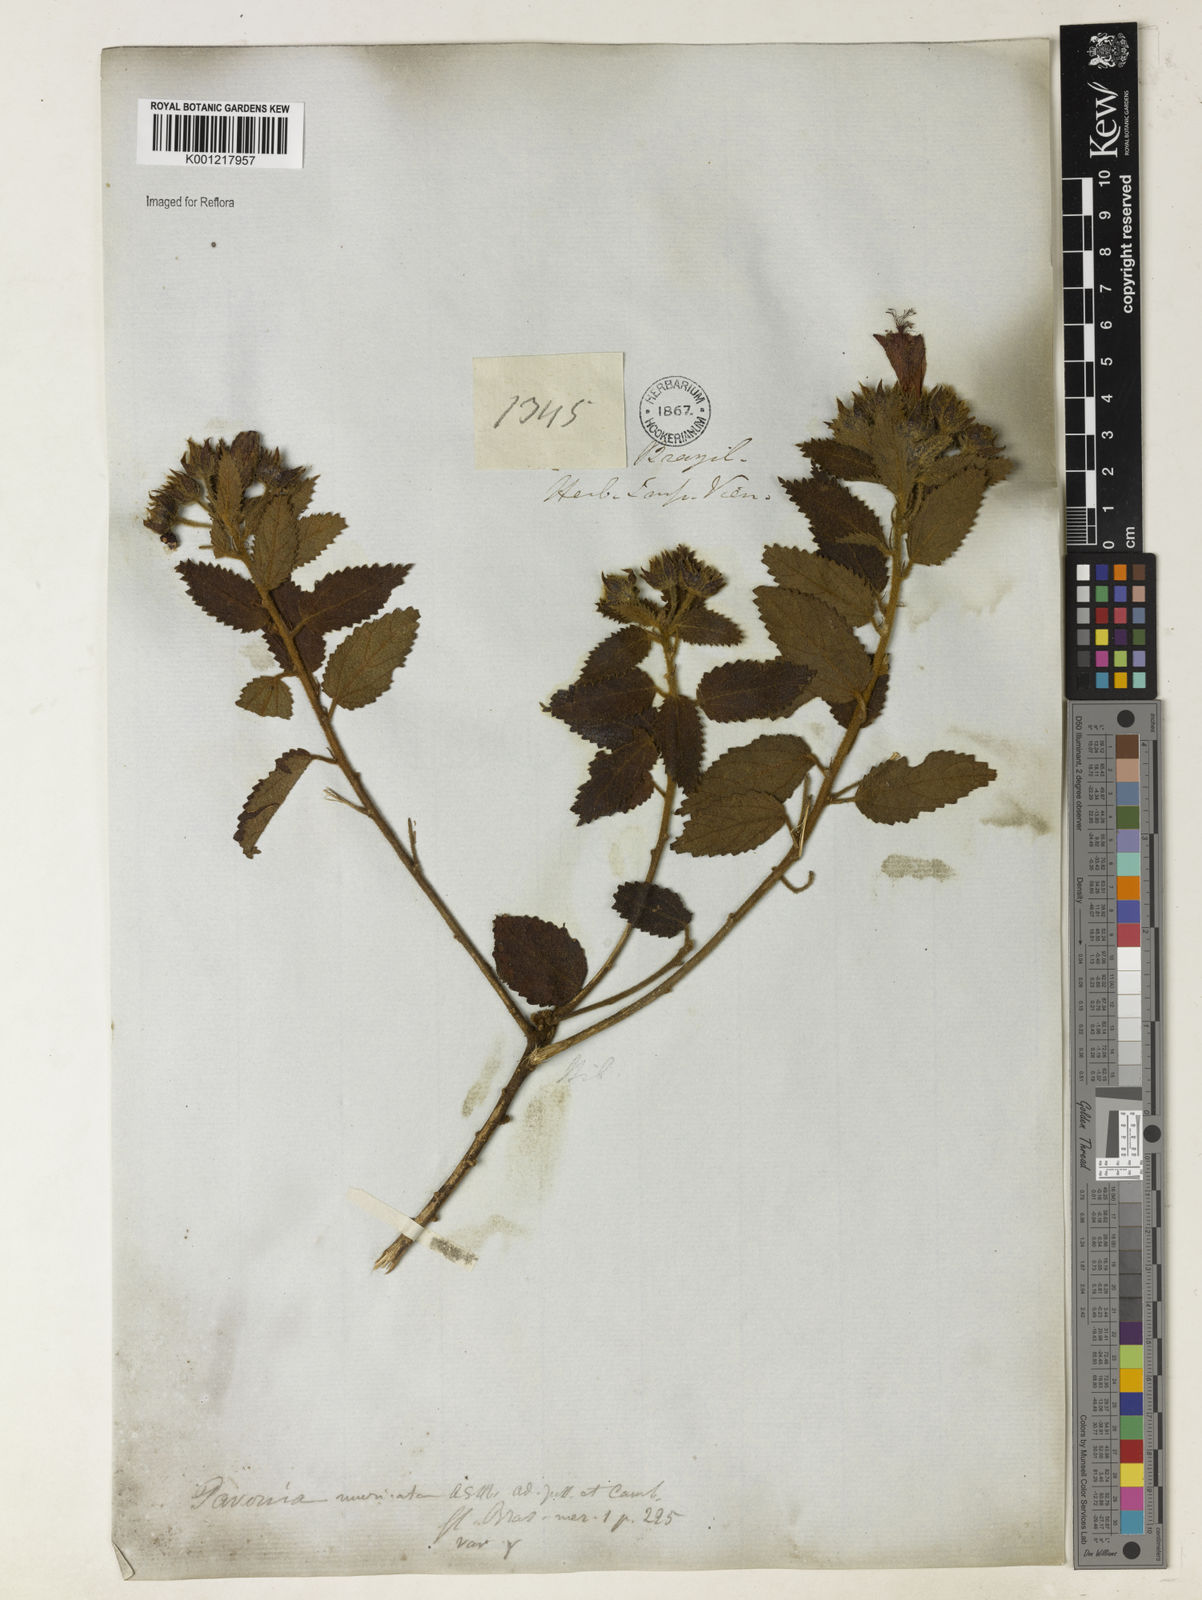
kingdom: Plantae
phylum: Tracheophyta
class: Magnoliopsida
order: Malvales
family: Malvaceae
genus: Pavonia
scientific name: Pavonia schrankii
